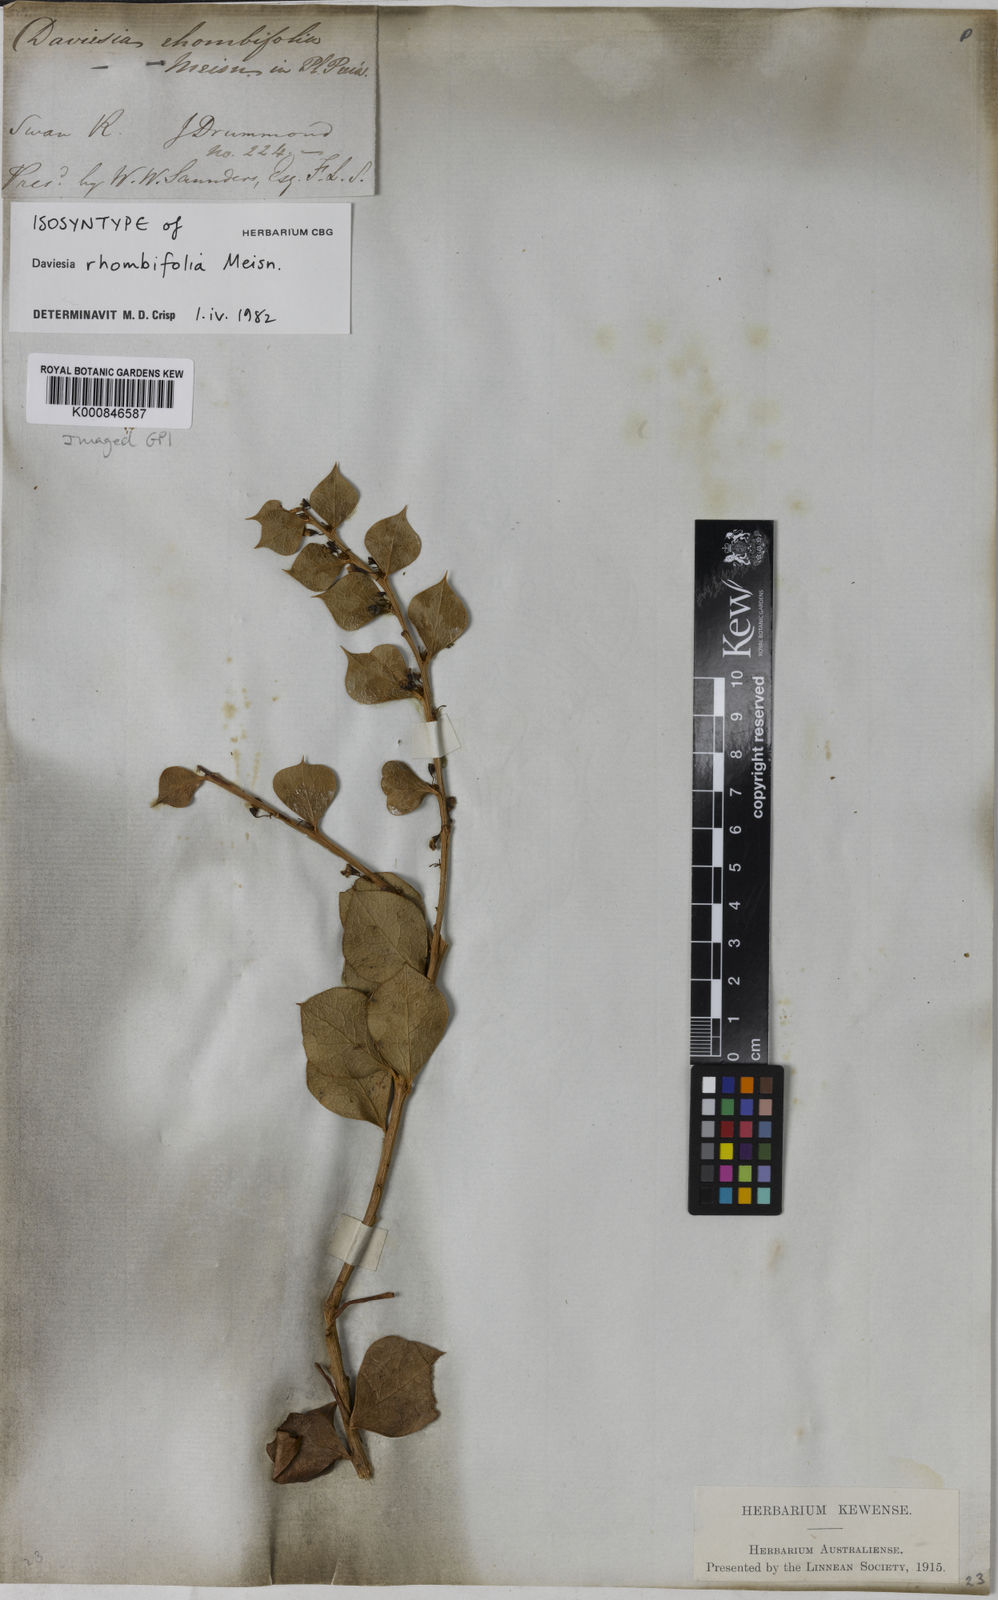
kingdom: Plantae
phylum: Tracheophyta
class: Magnoliopsida
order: Fabales
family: Fabaceae
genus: Daviesia
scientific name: Daviesia rhombifolia
